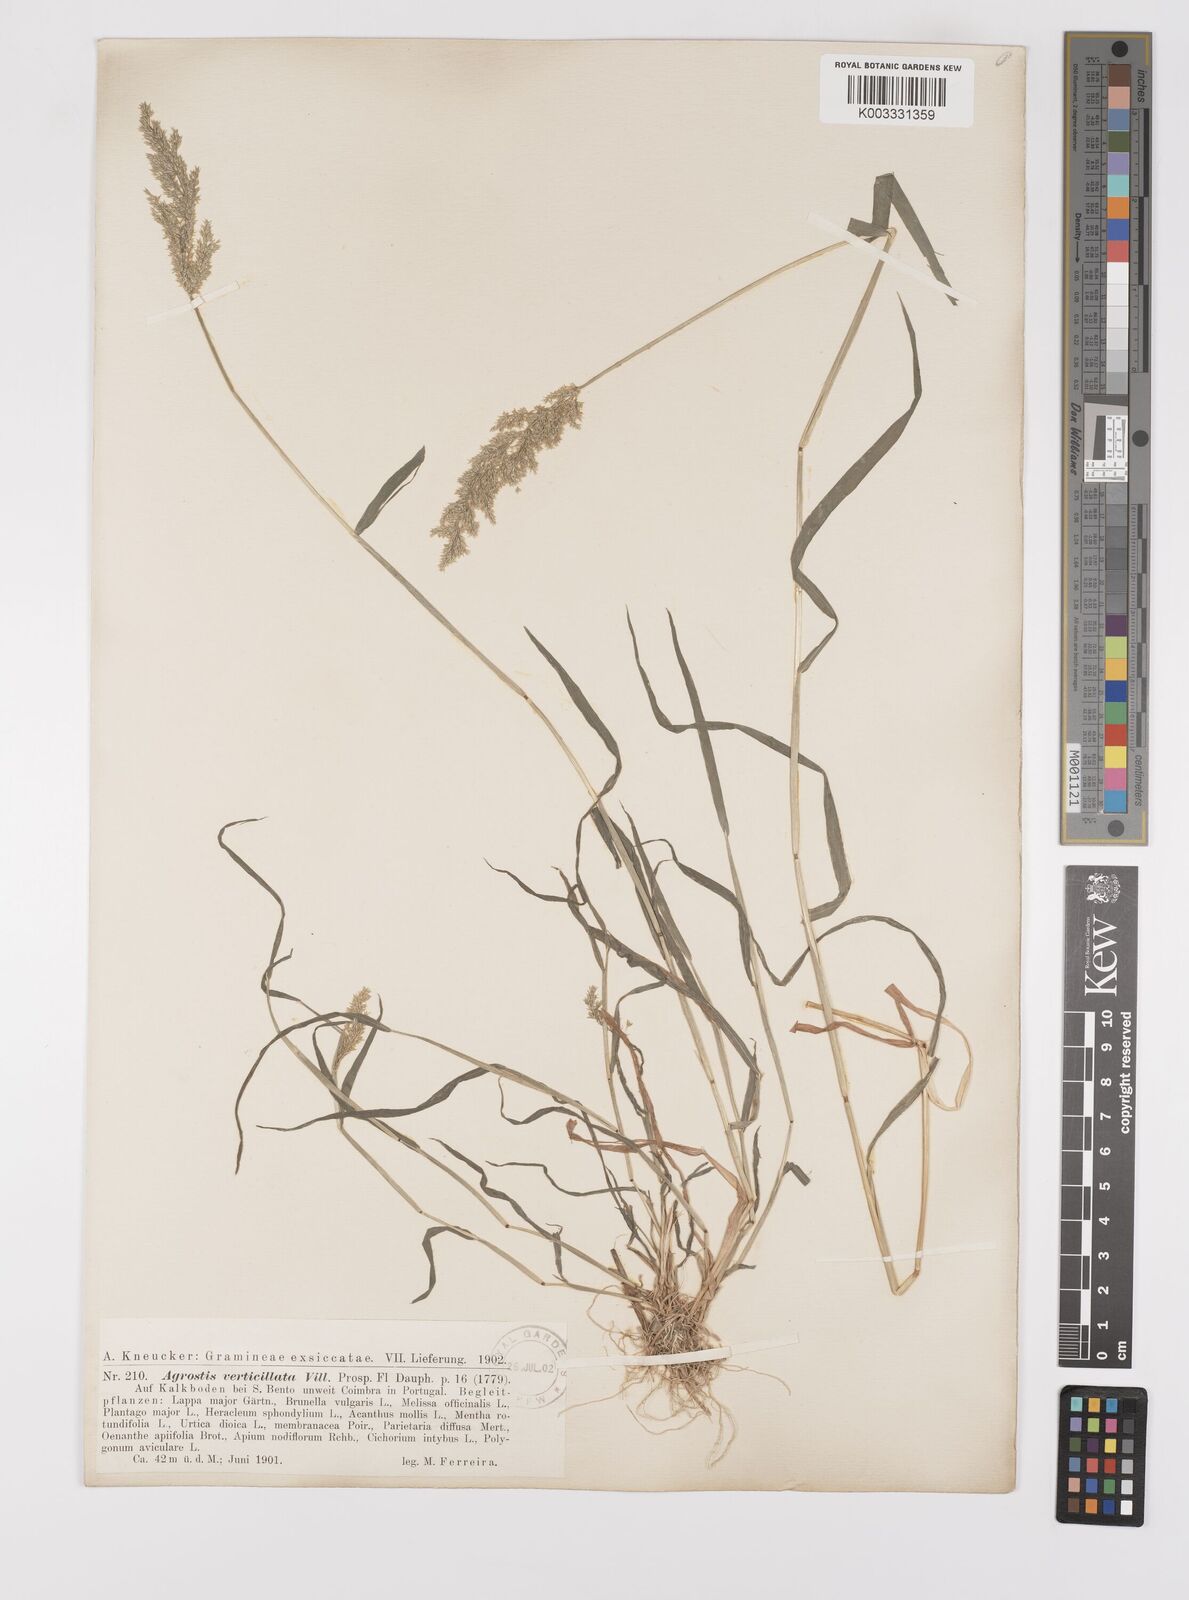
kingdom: Plantae
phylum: Tracheophyta
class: Liliopsida
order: Poales
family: Poaceae
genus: Polypogon
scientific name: Polypogon viridis
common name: Water bent
